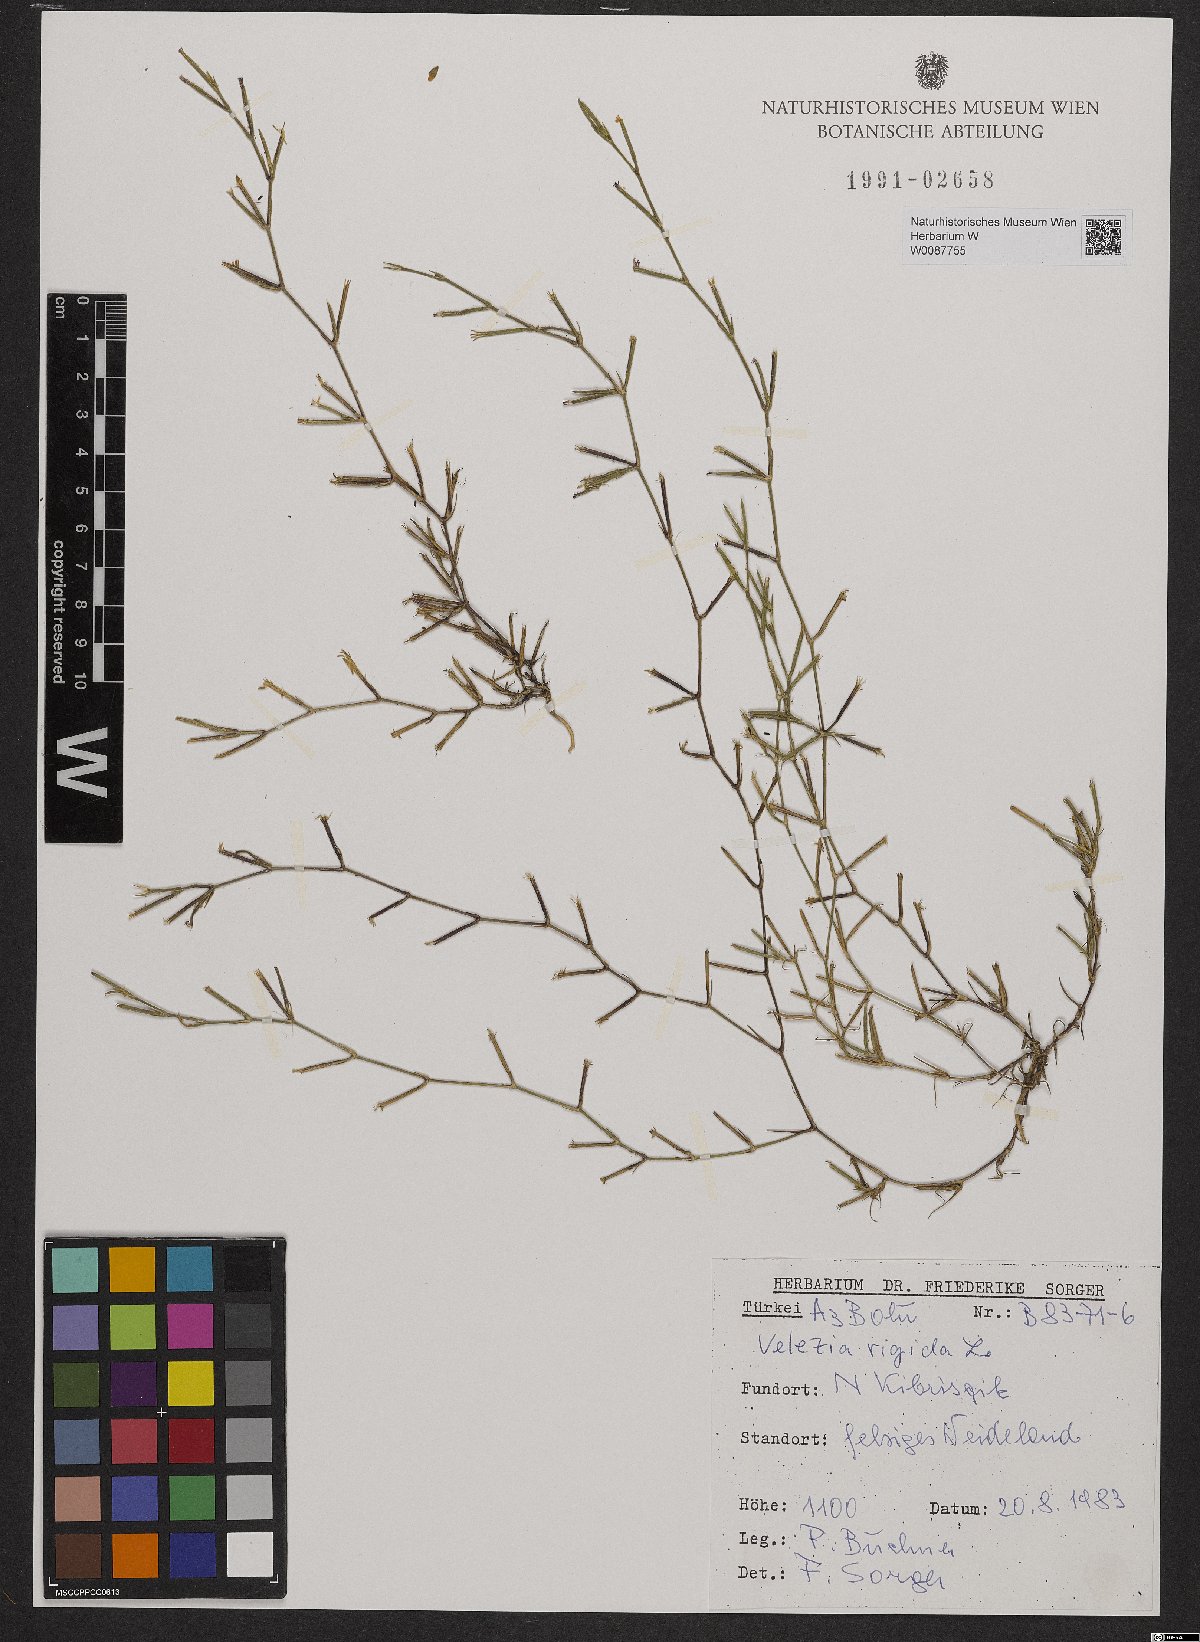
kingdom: Plantae
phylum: Tracheophyta
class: Magnoliopsida
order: Caryophyllales
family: Caryophyllaceae
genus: Dianthus
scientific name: Dianthus nudiflorus
